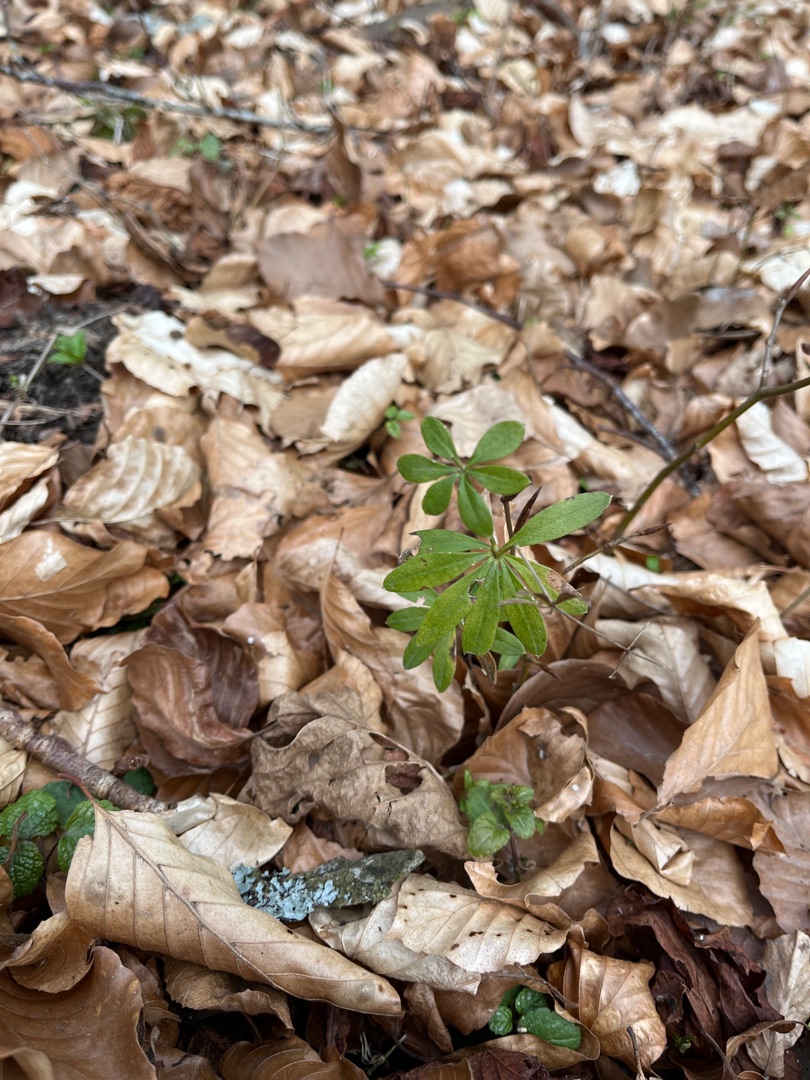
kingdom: Plantae
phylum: Tracheophyta
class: Magnoliopsida
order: Gentianales
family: Rubiaceae
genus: Galium
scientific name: Galium odoratum
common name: Skovmærke
